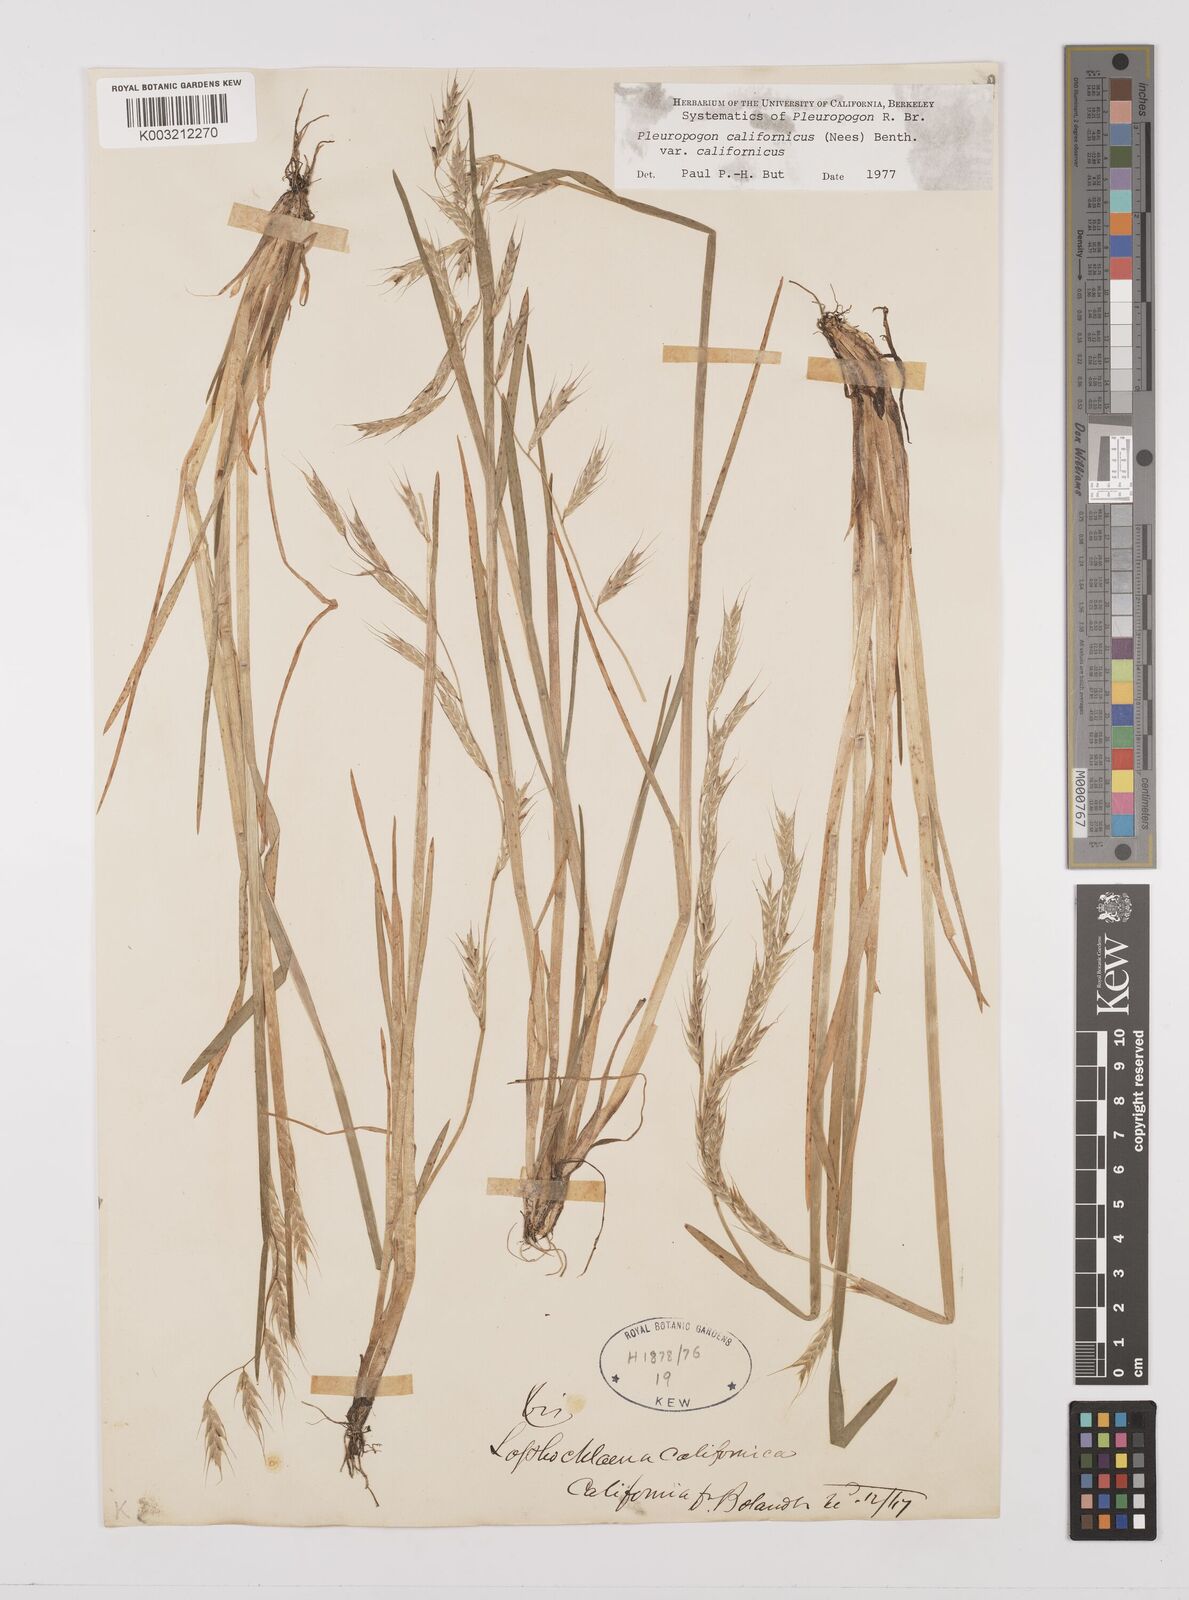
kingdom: Plantae
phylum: Tracheophyta
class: Liliopsida
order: Poales
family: Poaceae
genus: Pleuropogon
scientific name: Pleuropogon californicus
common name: California semaphore grass
